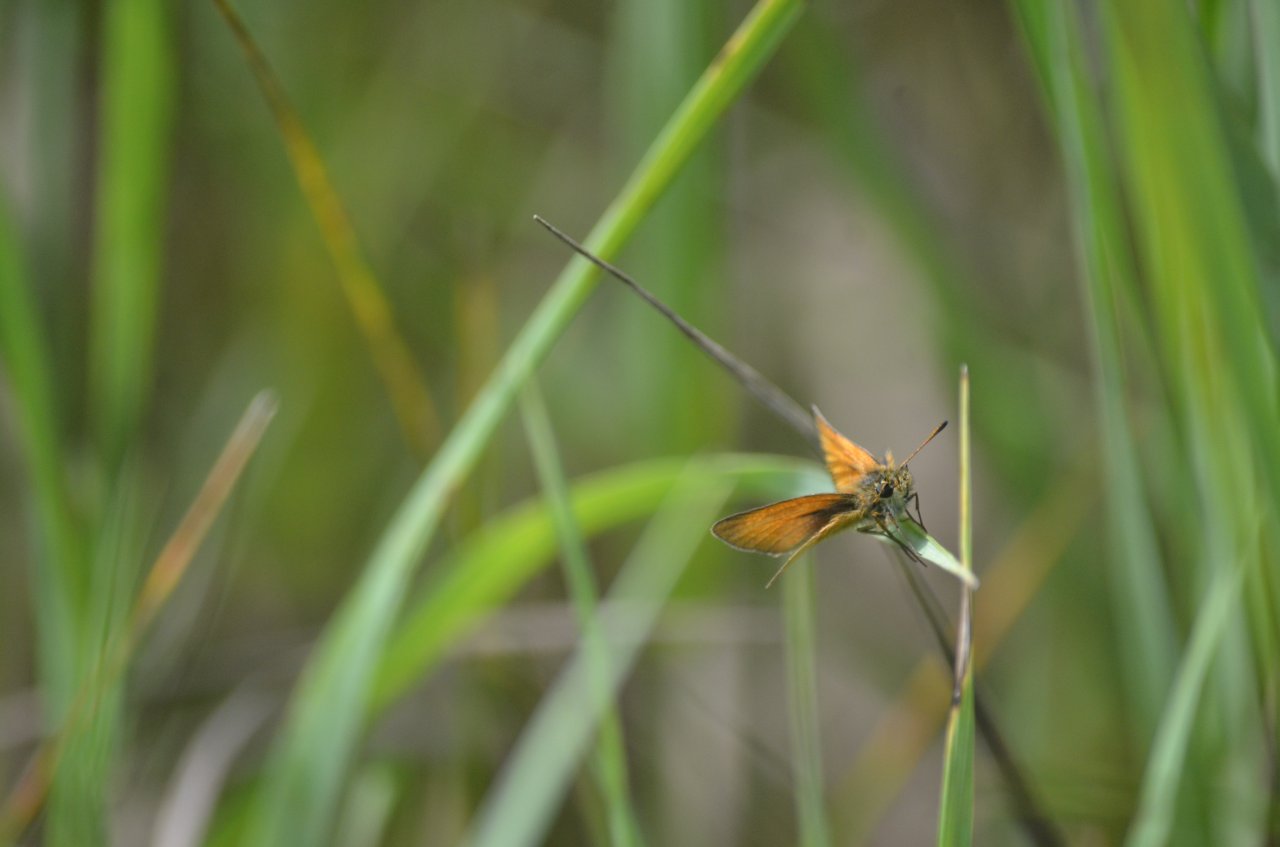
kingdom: Animalia
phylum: Arthropoda
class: Insecta
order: Lepidoptera
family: Hesperiidae
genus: Thymelicus
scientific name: Thymelicus lineola
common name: European Skipper
